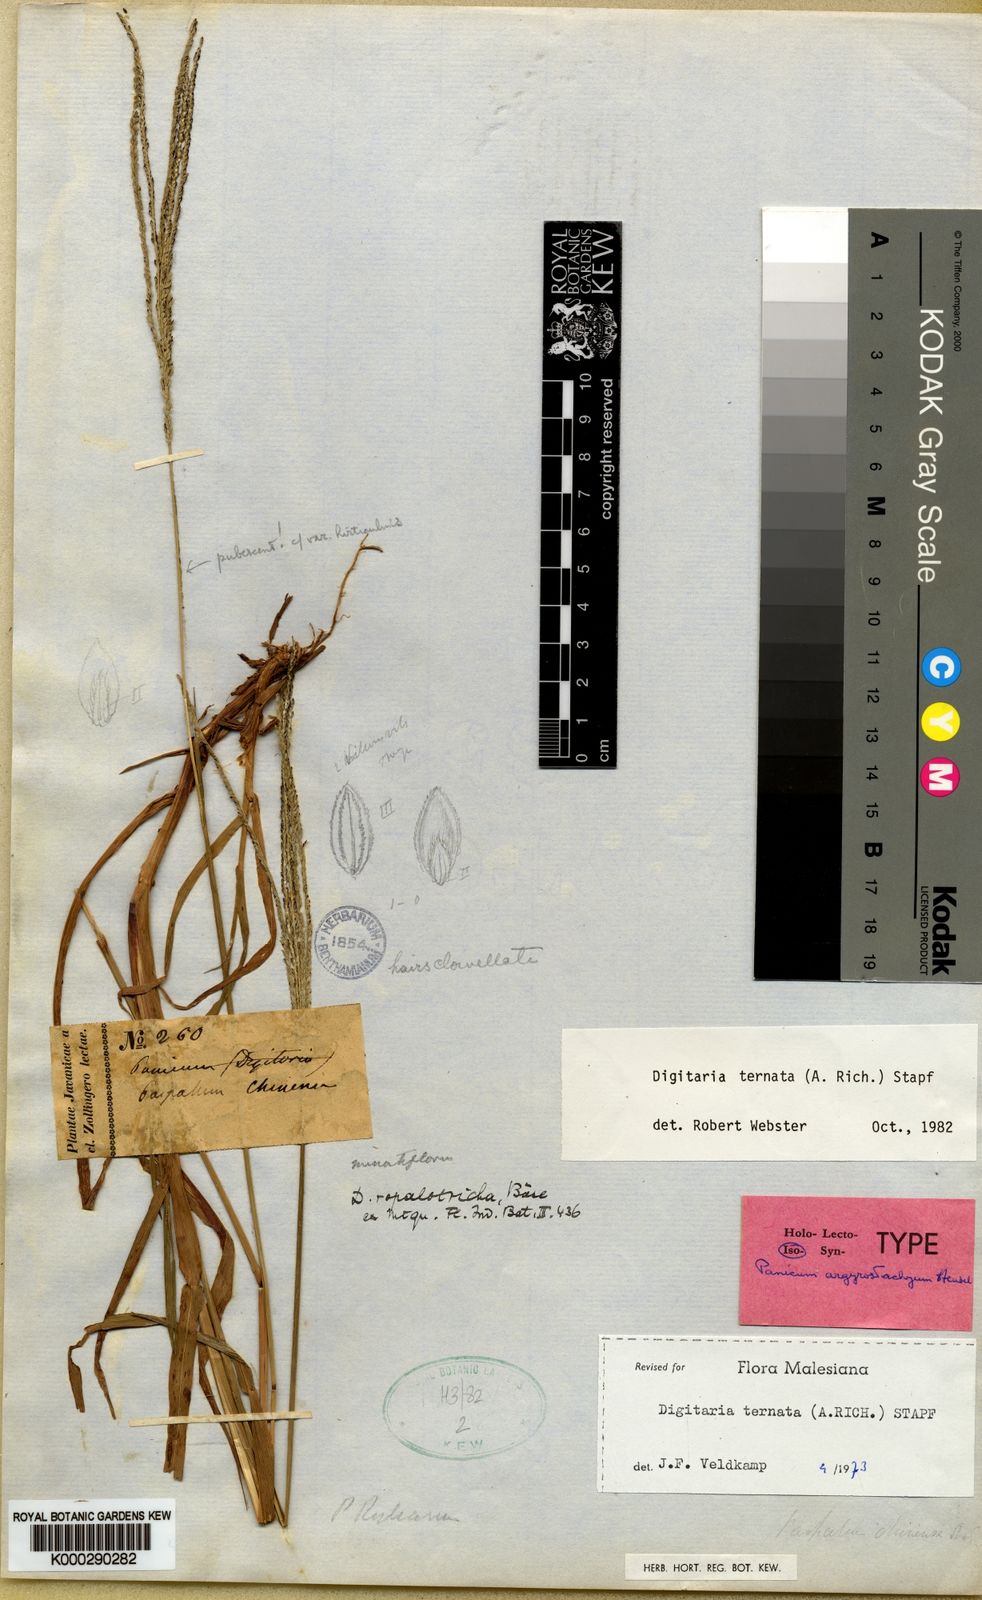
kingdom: Plantae
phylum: Tracheophyta
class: Liliopsida
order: Poales
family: Poaceae
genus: Digitaria
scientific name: Digitaria ternata
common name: Blackseed crabgrass
